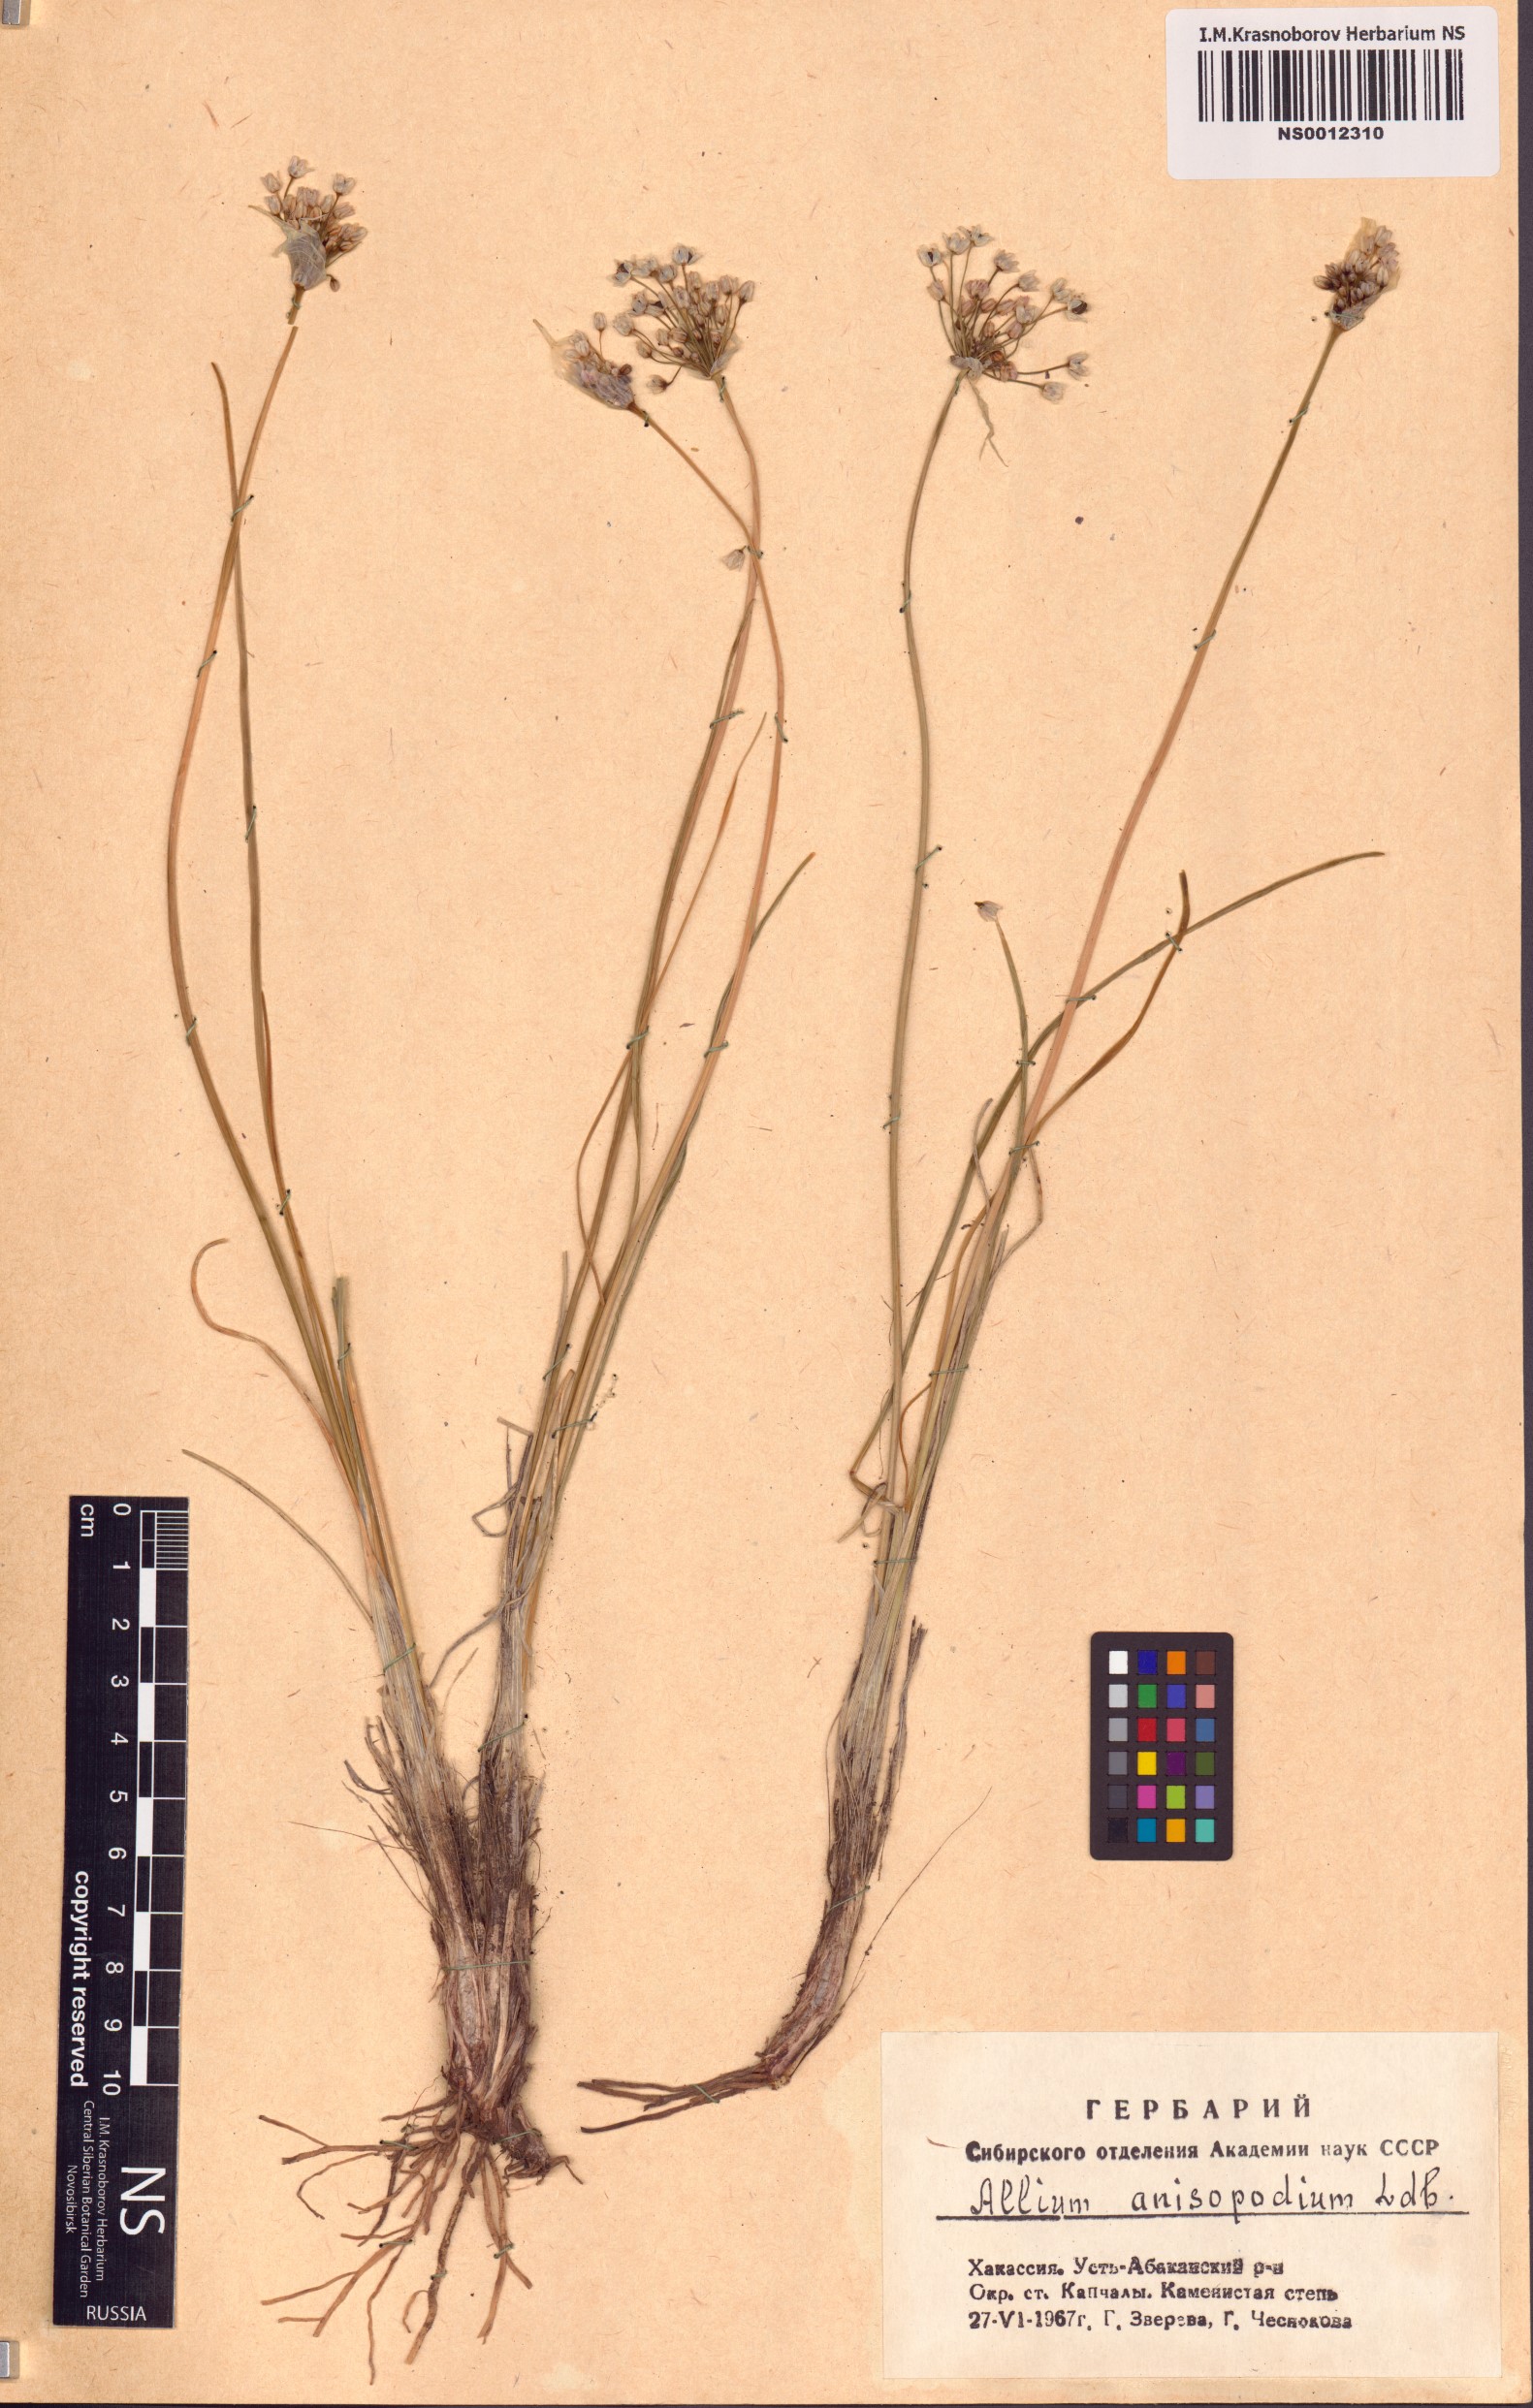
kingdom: Plantae
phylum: Tracheophyta
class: Liliopsida
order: Asparagales
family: Amaryllidaceae
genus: Allium
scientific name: Allium anisopodium
